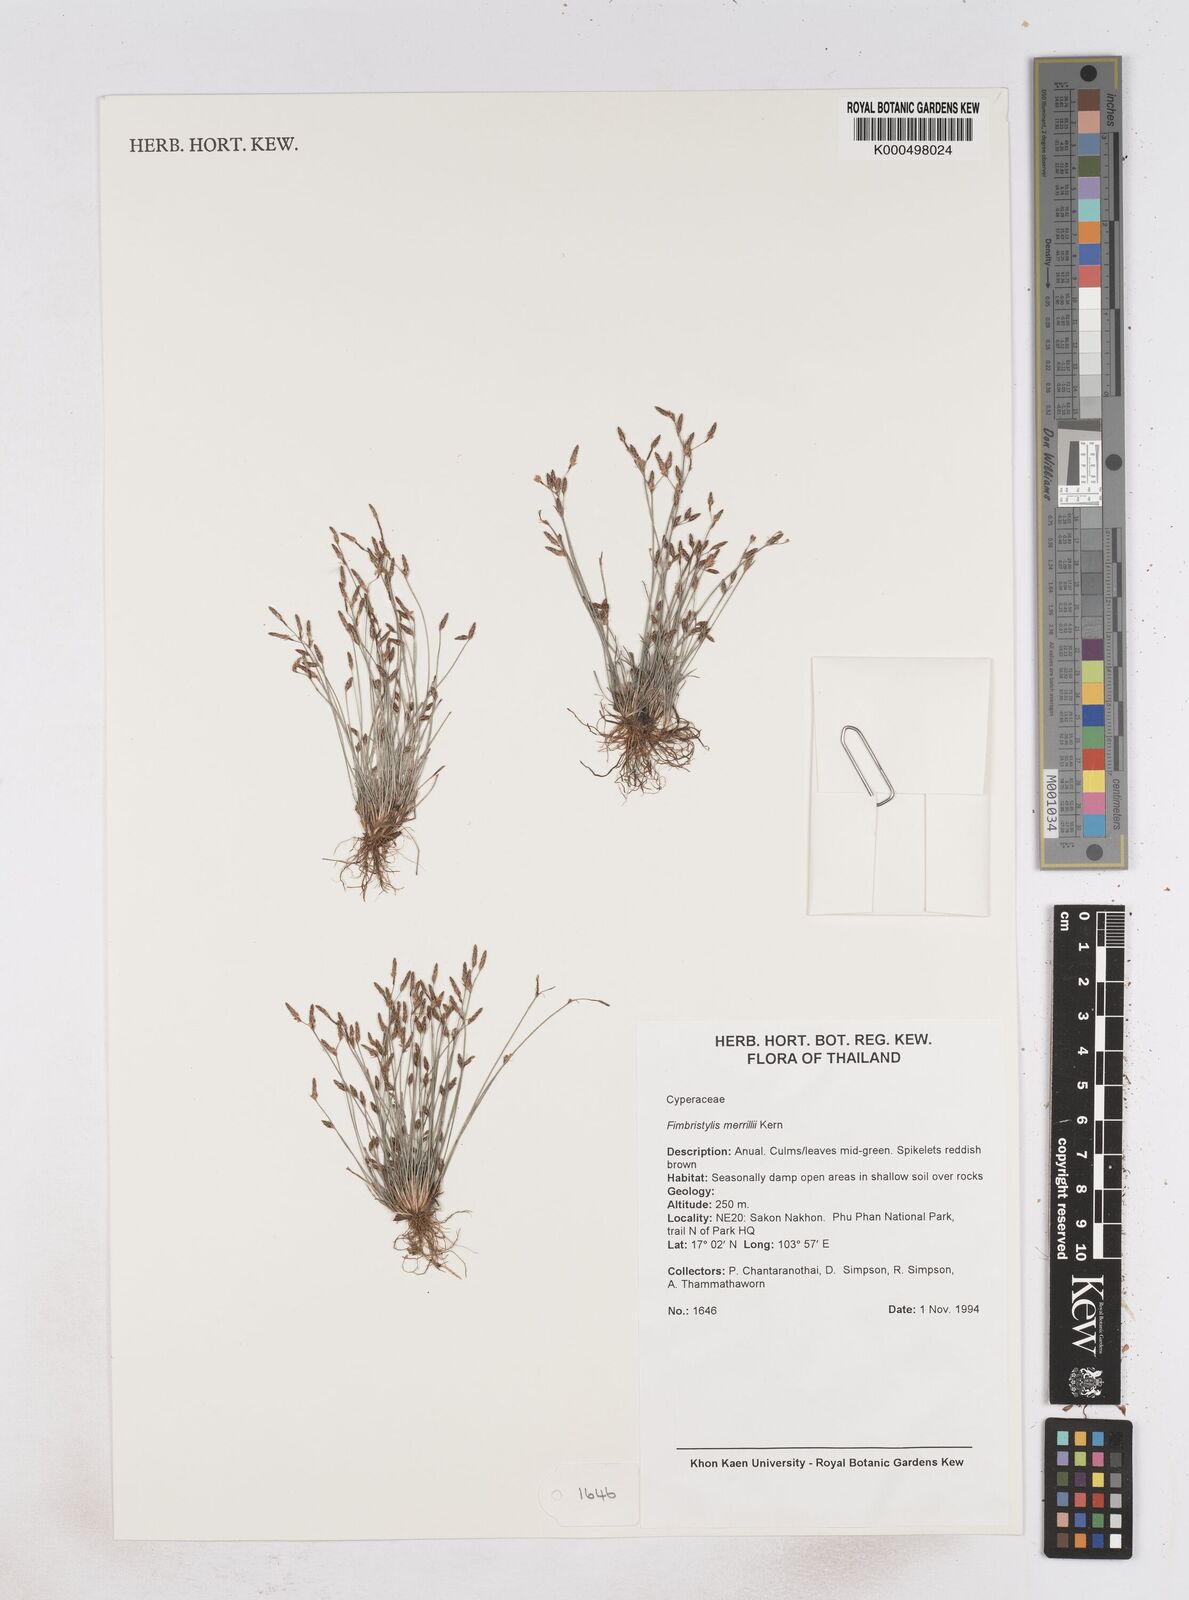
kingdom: Plantae
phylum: Tracheophyta
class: Liliopsida
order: Poales
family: Cyperaceae
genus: Fimbristylis
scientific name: Fimbristylis merrillii
